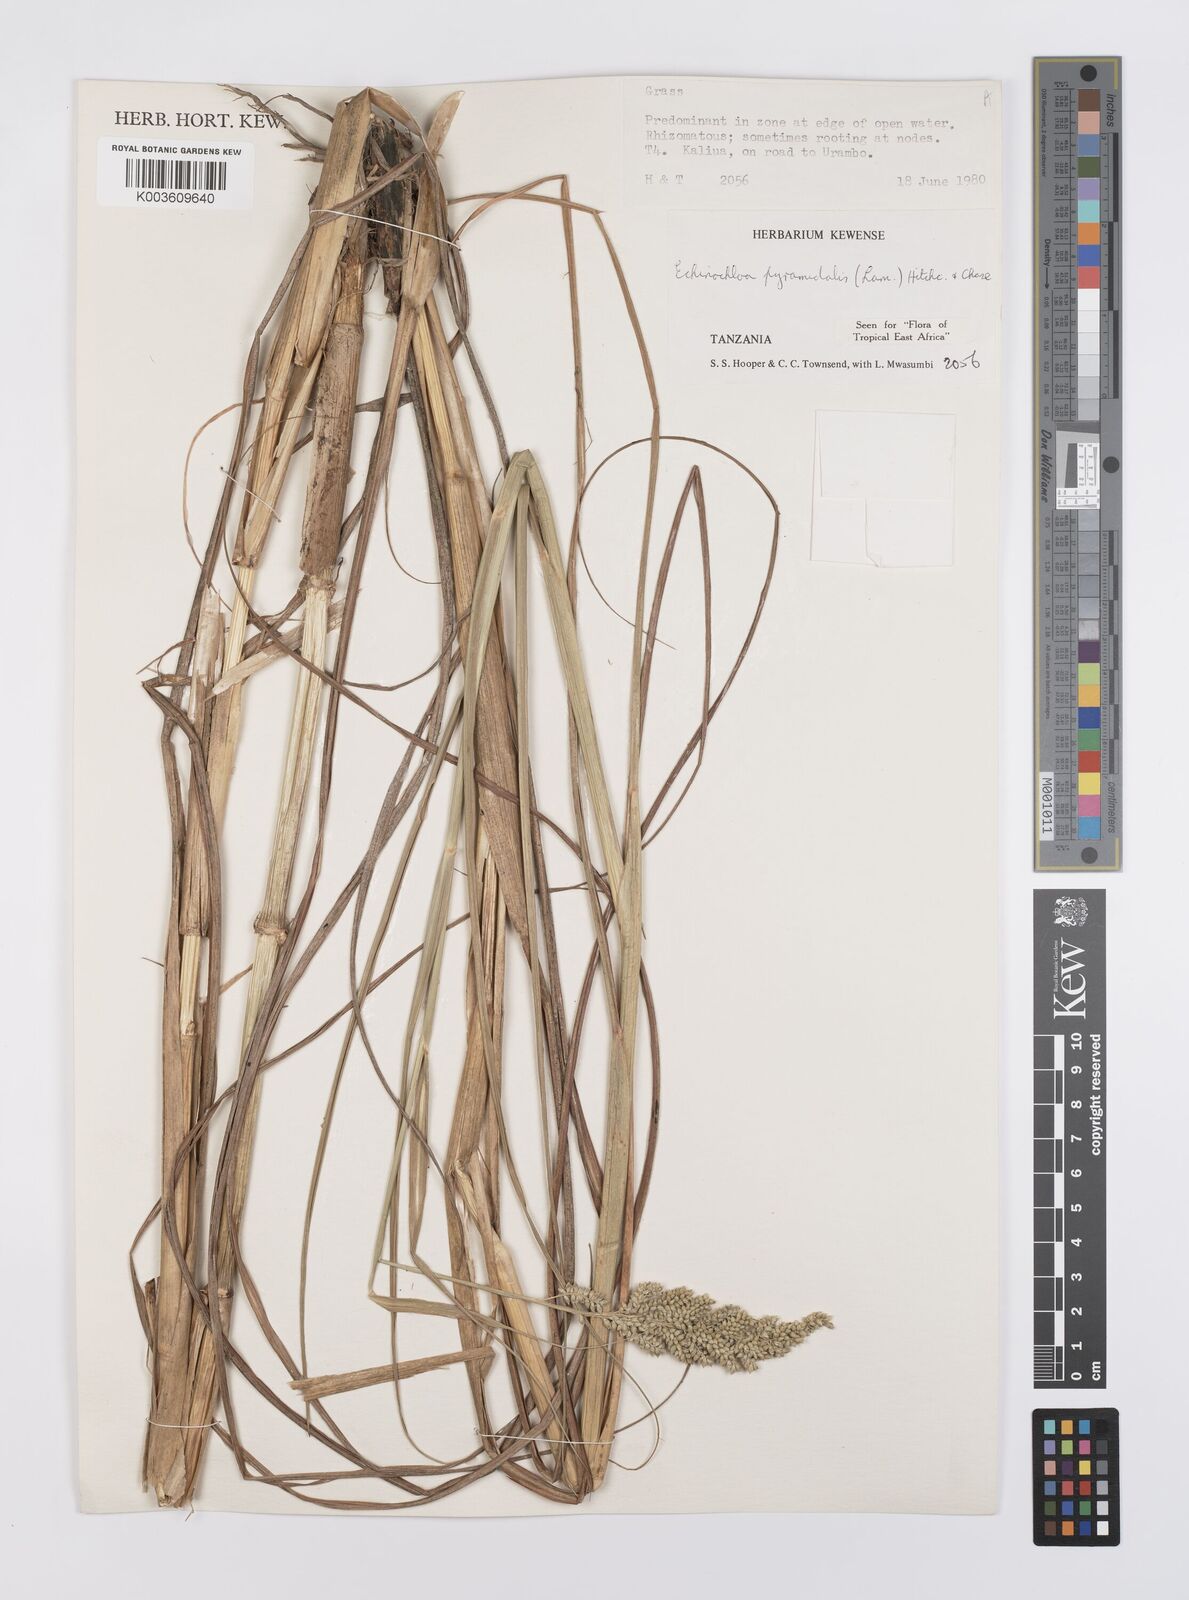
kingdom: Plantae
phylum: Tracheophyta
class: Liliopsida
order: Poales
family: Poaceae
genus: Echinochloa
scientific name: Echinochloa pyramidalis
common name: Antelope grass
